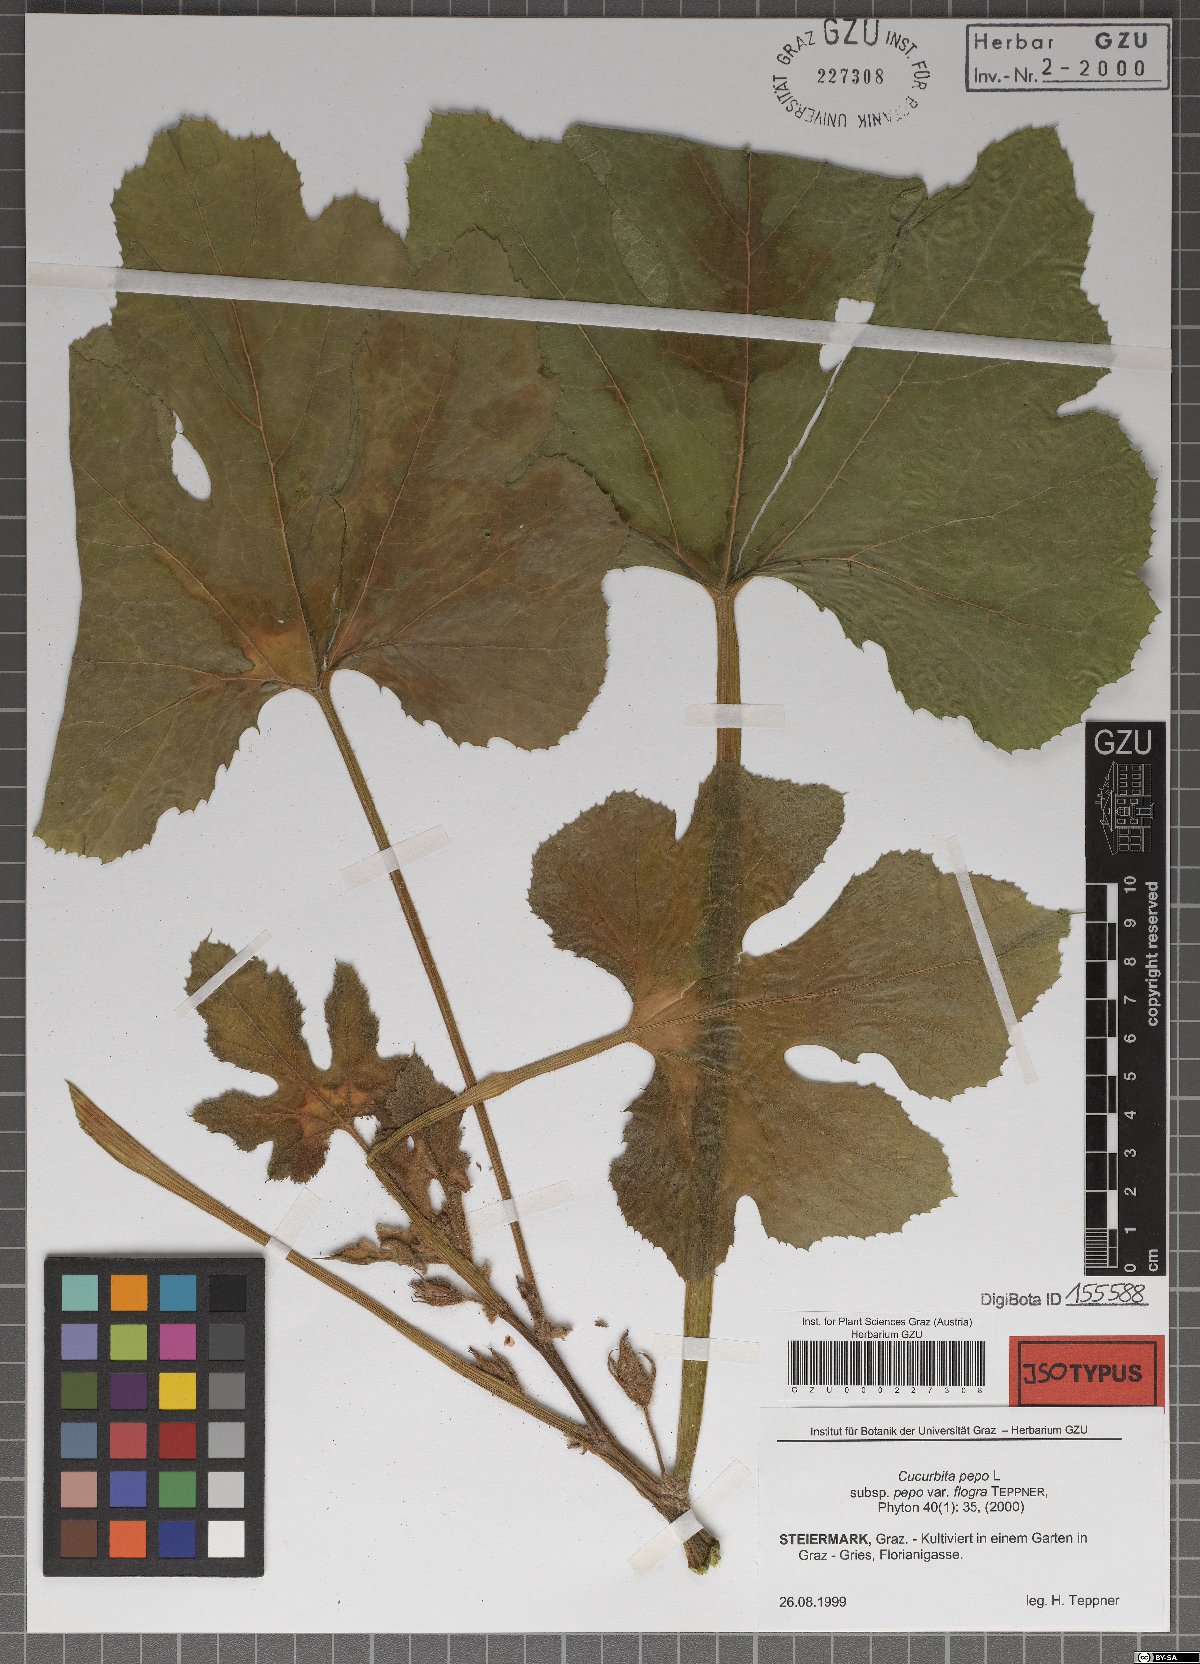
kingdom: Plantae
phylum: Tracheophyta
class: Magnoliopsida
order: Cucurbitales
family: Cucurbitaceae
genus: Cucurbita
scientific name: Cucurbita pepo
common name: Marrow
